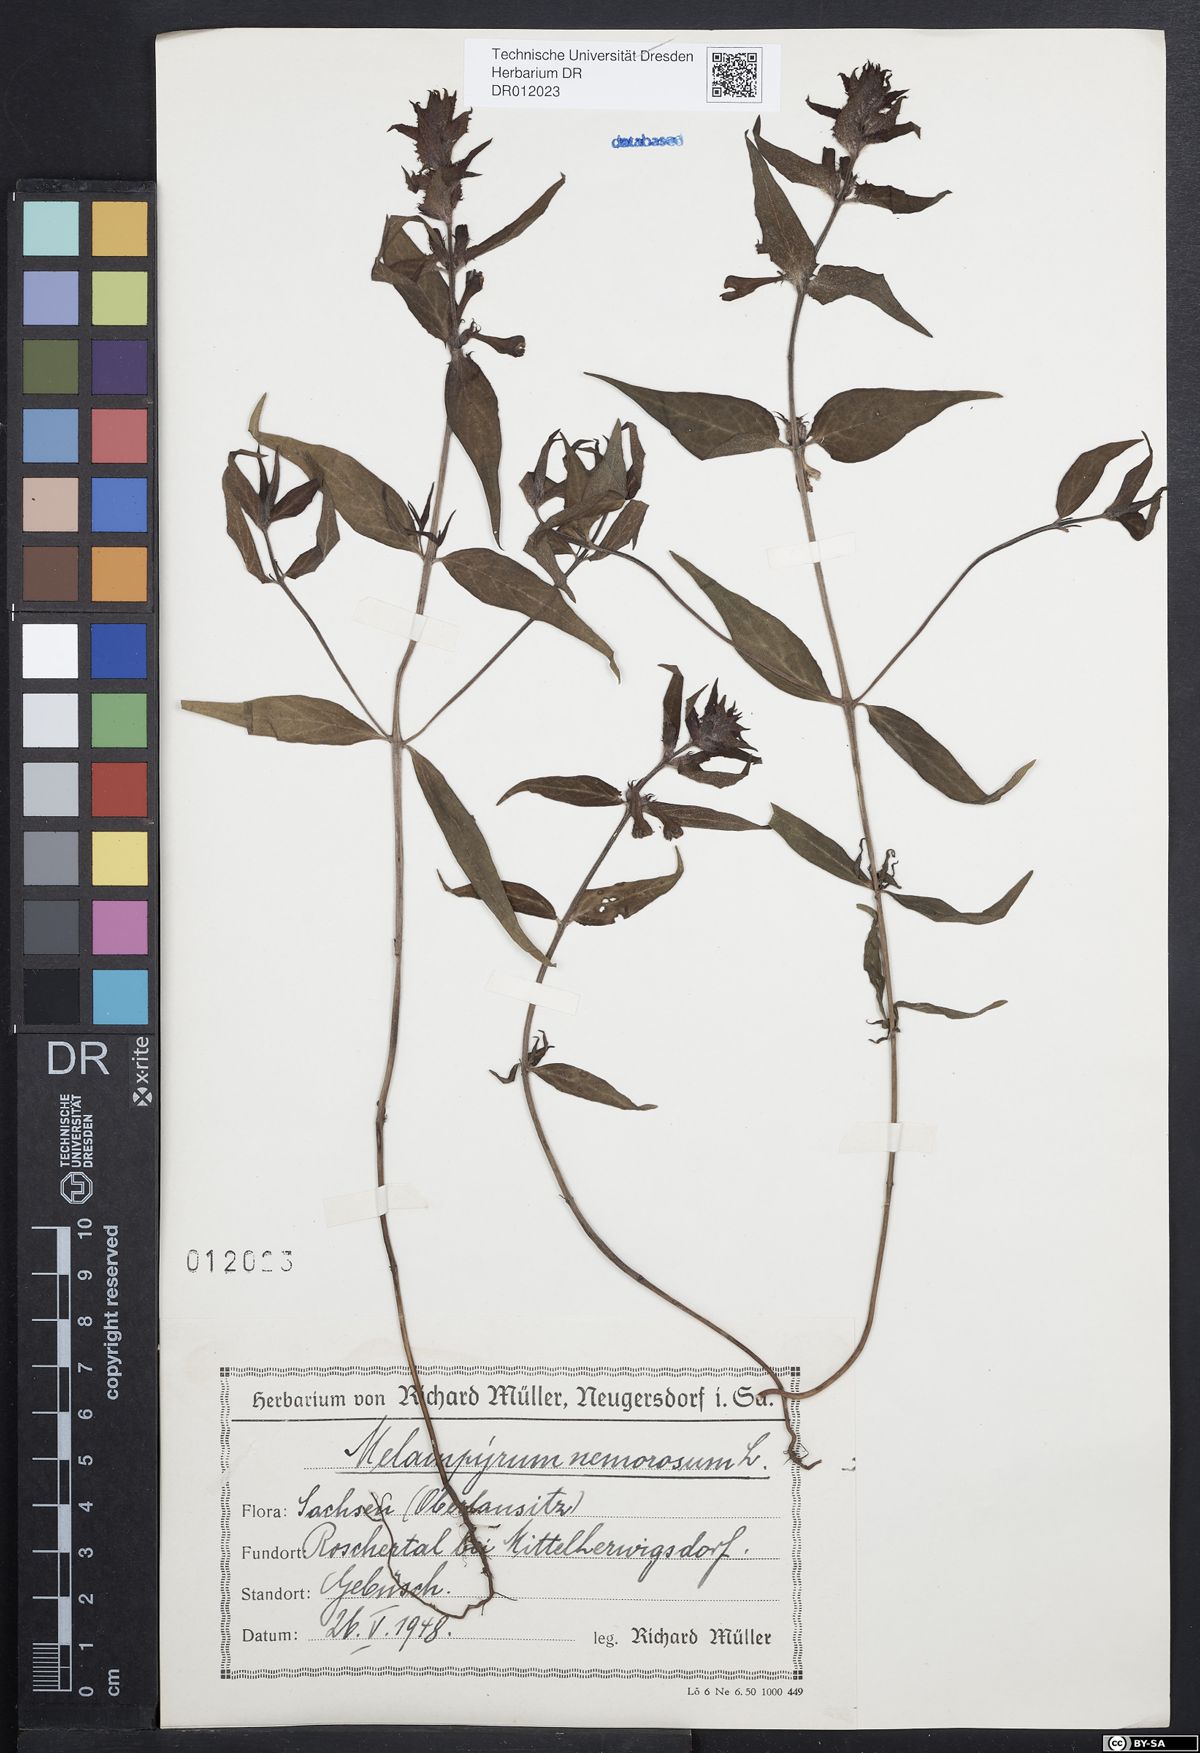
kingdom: Plantae
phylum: Tracheophyta
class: Magnoliopsida
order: Lamiales
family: Orobanchaceae
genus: Melampyrum
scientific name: Melampyrum nemorosum
